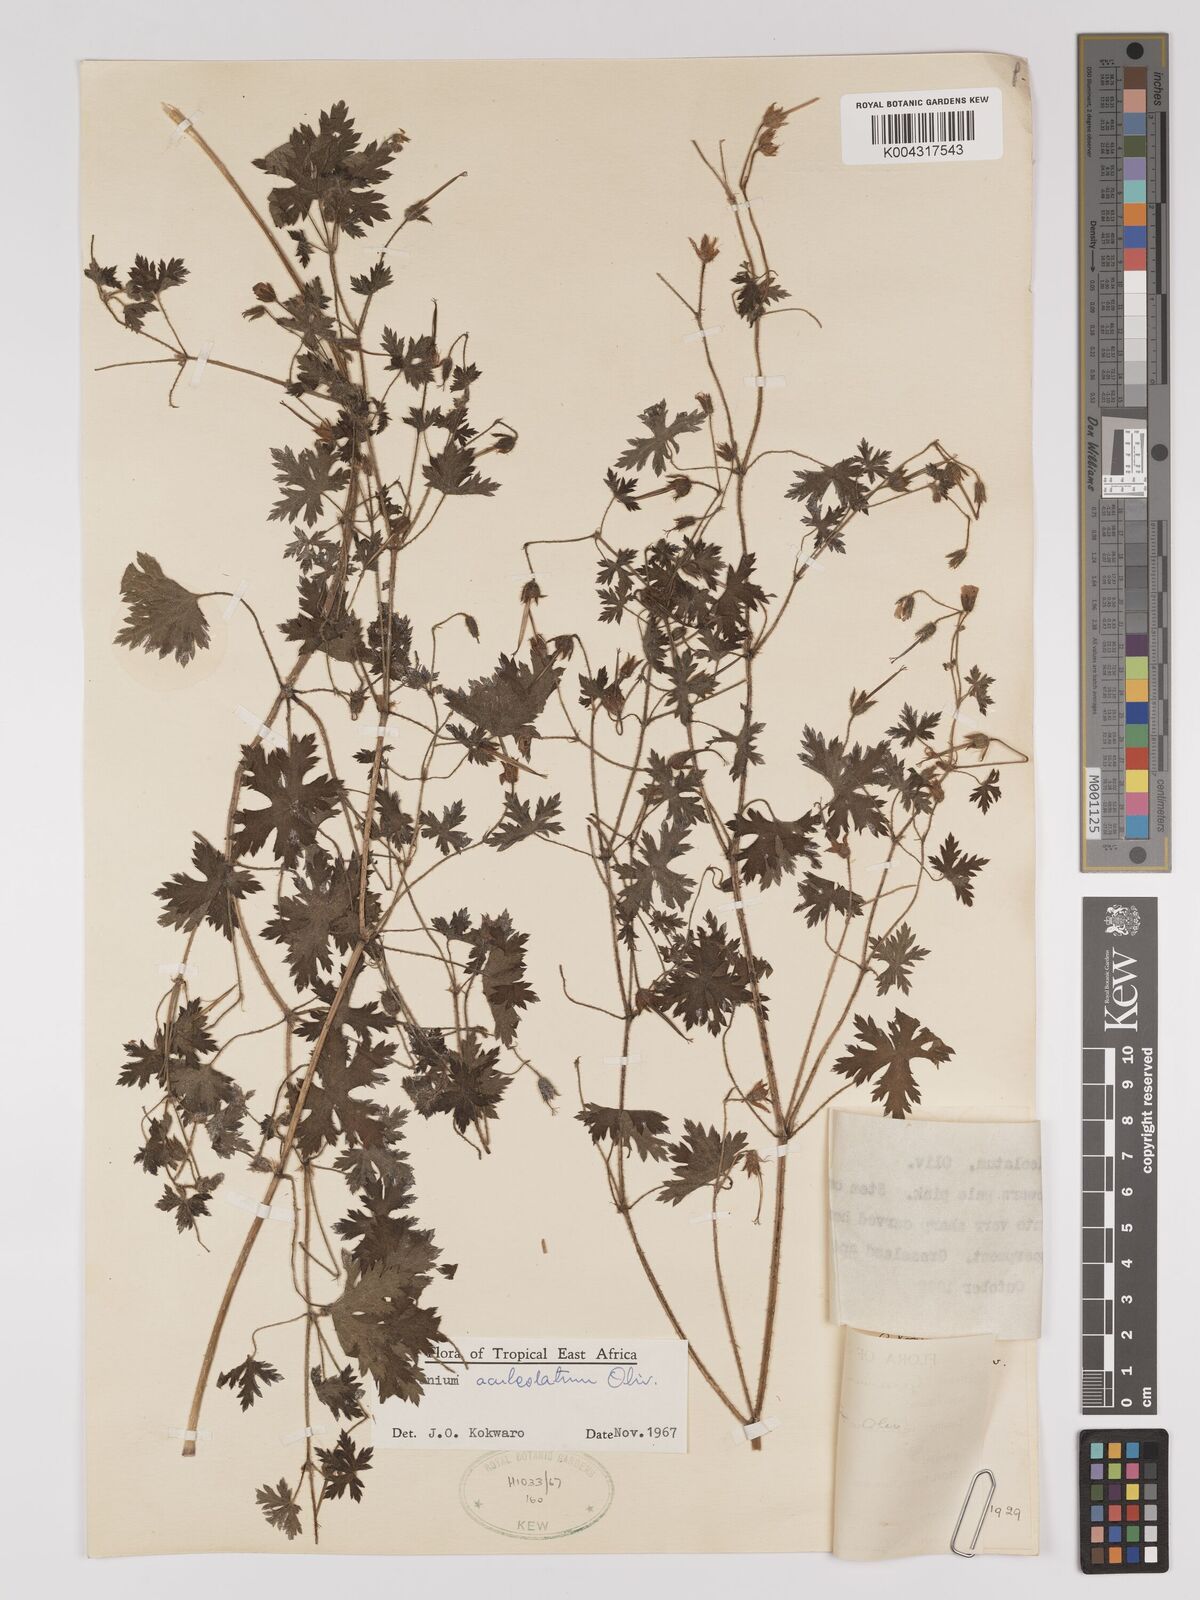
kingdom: Plantae
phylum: Tracheophyta
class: Magnoliopsida
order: Geraniales
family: Geraniaceae
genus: Geranium
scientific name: Geranium aculeolatum
